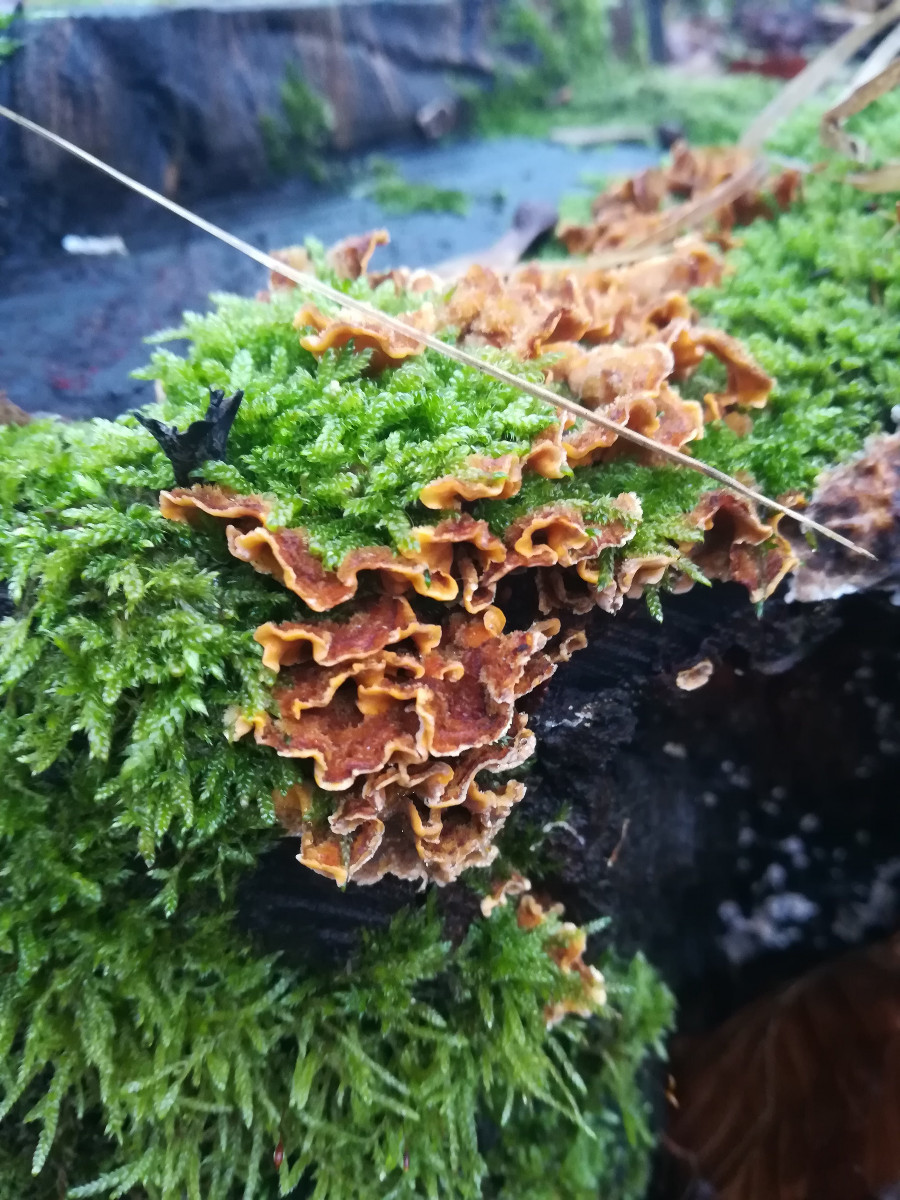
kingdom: Fungi
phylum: Basidiomycota
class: Agaricomycetes
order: Russulales
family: Stereaceae
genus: Stereum
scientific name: Stereum hirsutum
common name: håret lædersvamp
